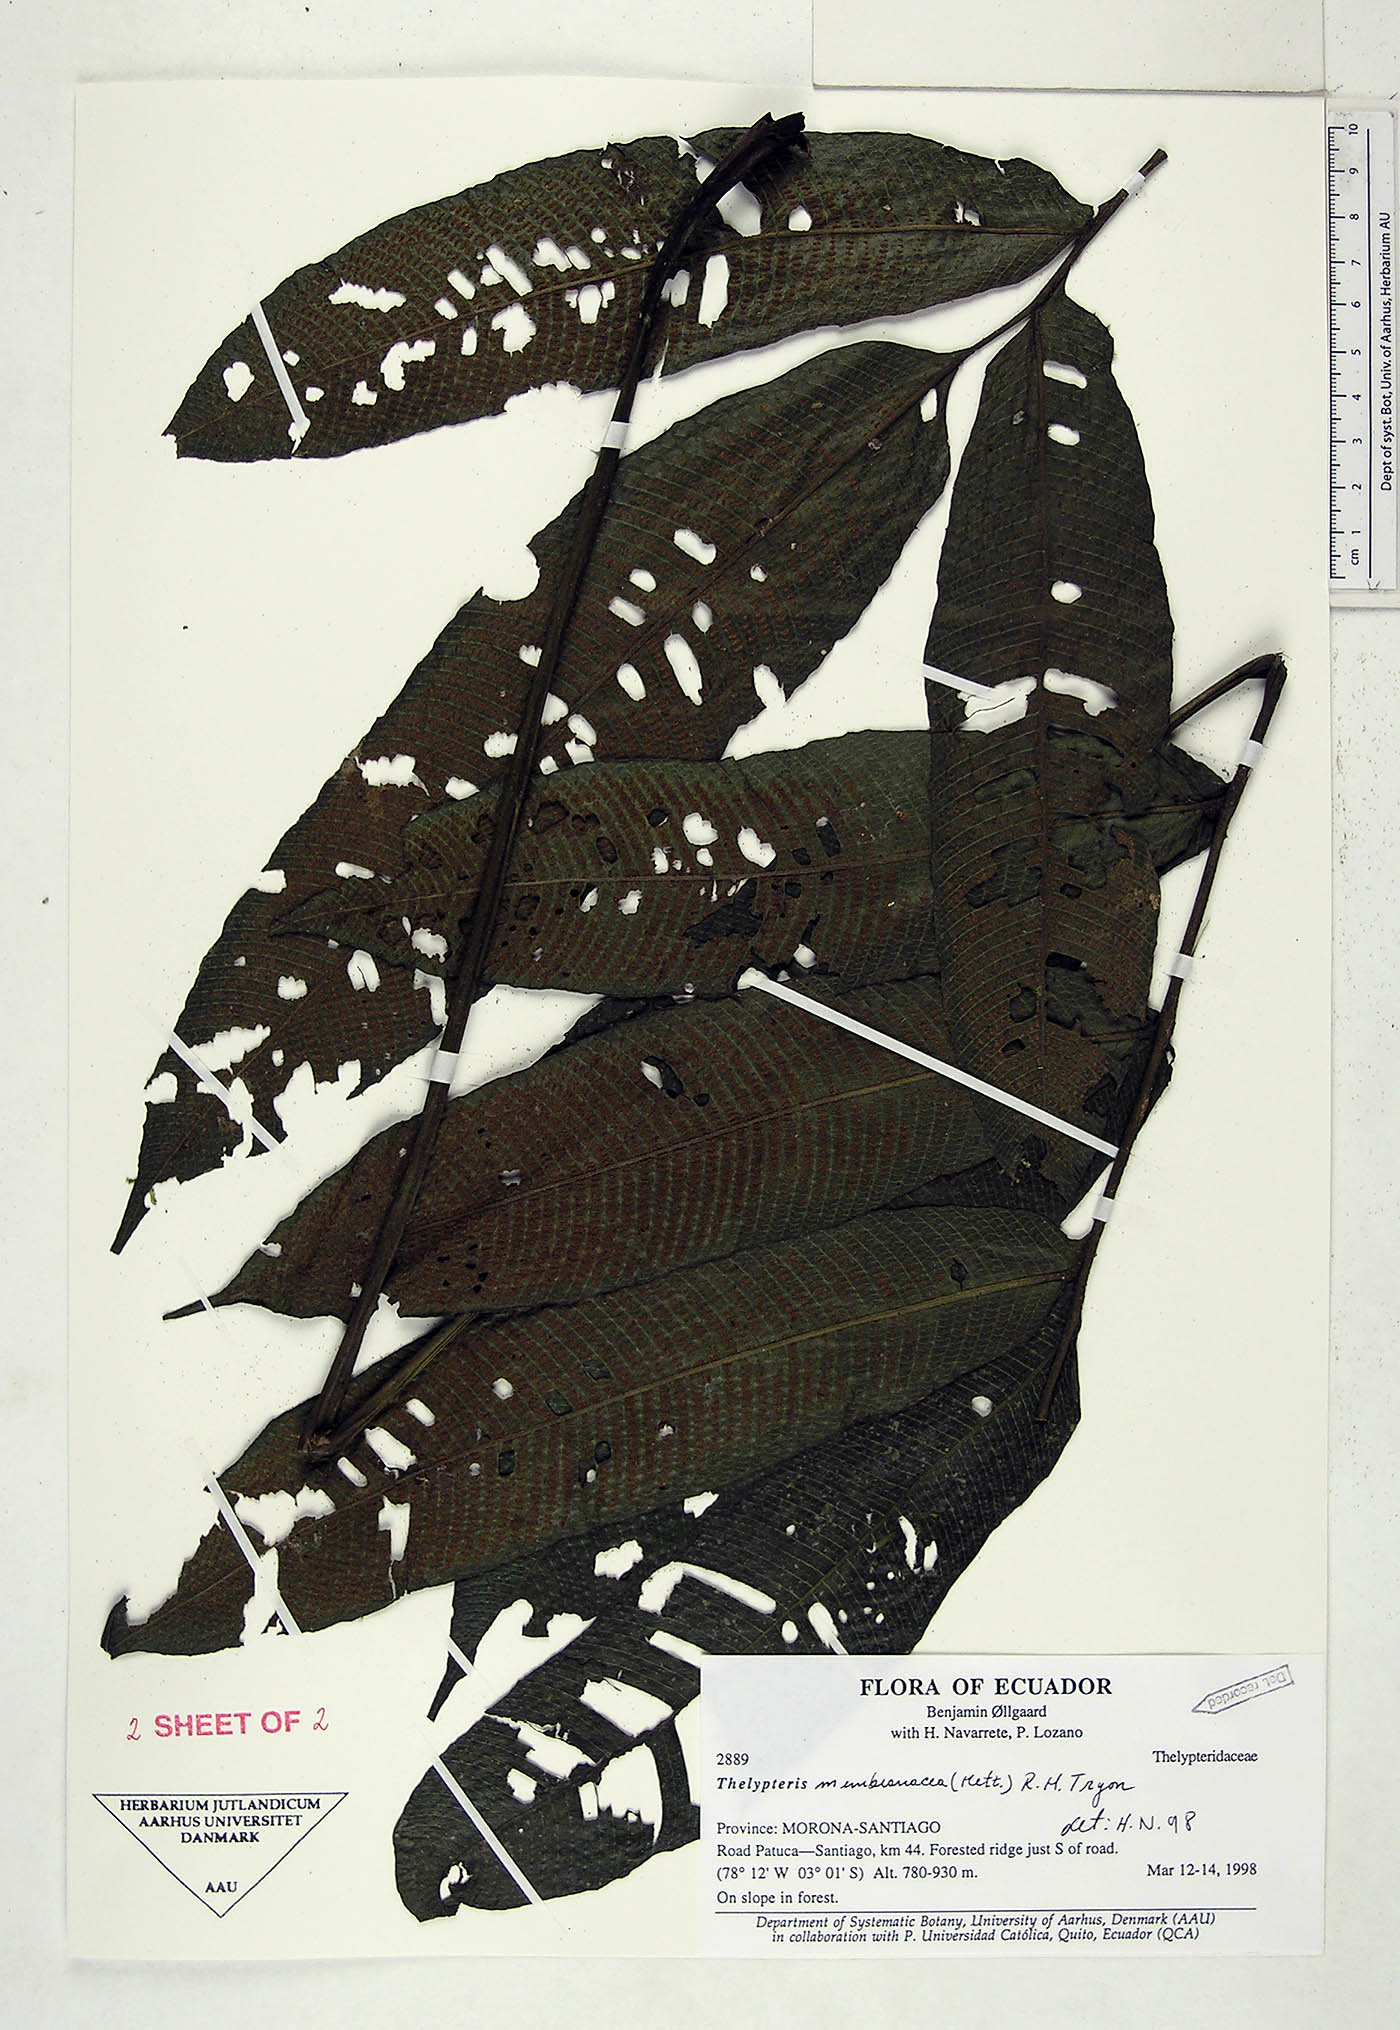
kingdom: Plantae
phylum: Tracheophyta
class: Polypodiopsida
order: Polypodiales
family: Thelypteridaceae
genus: Meniscium
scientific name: Meniscium membranaceum
